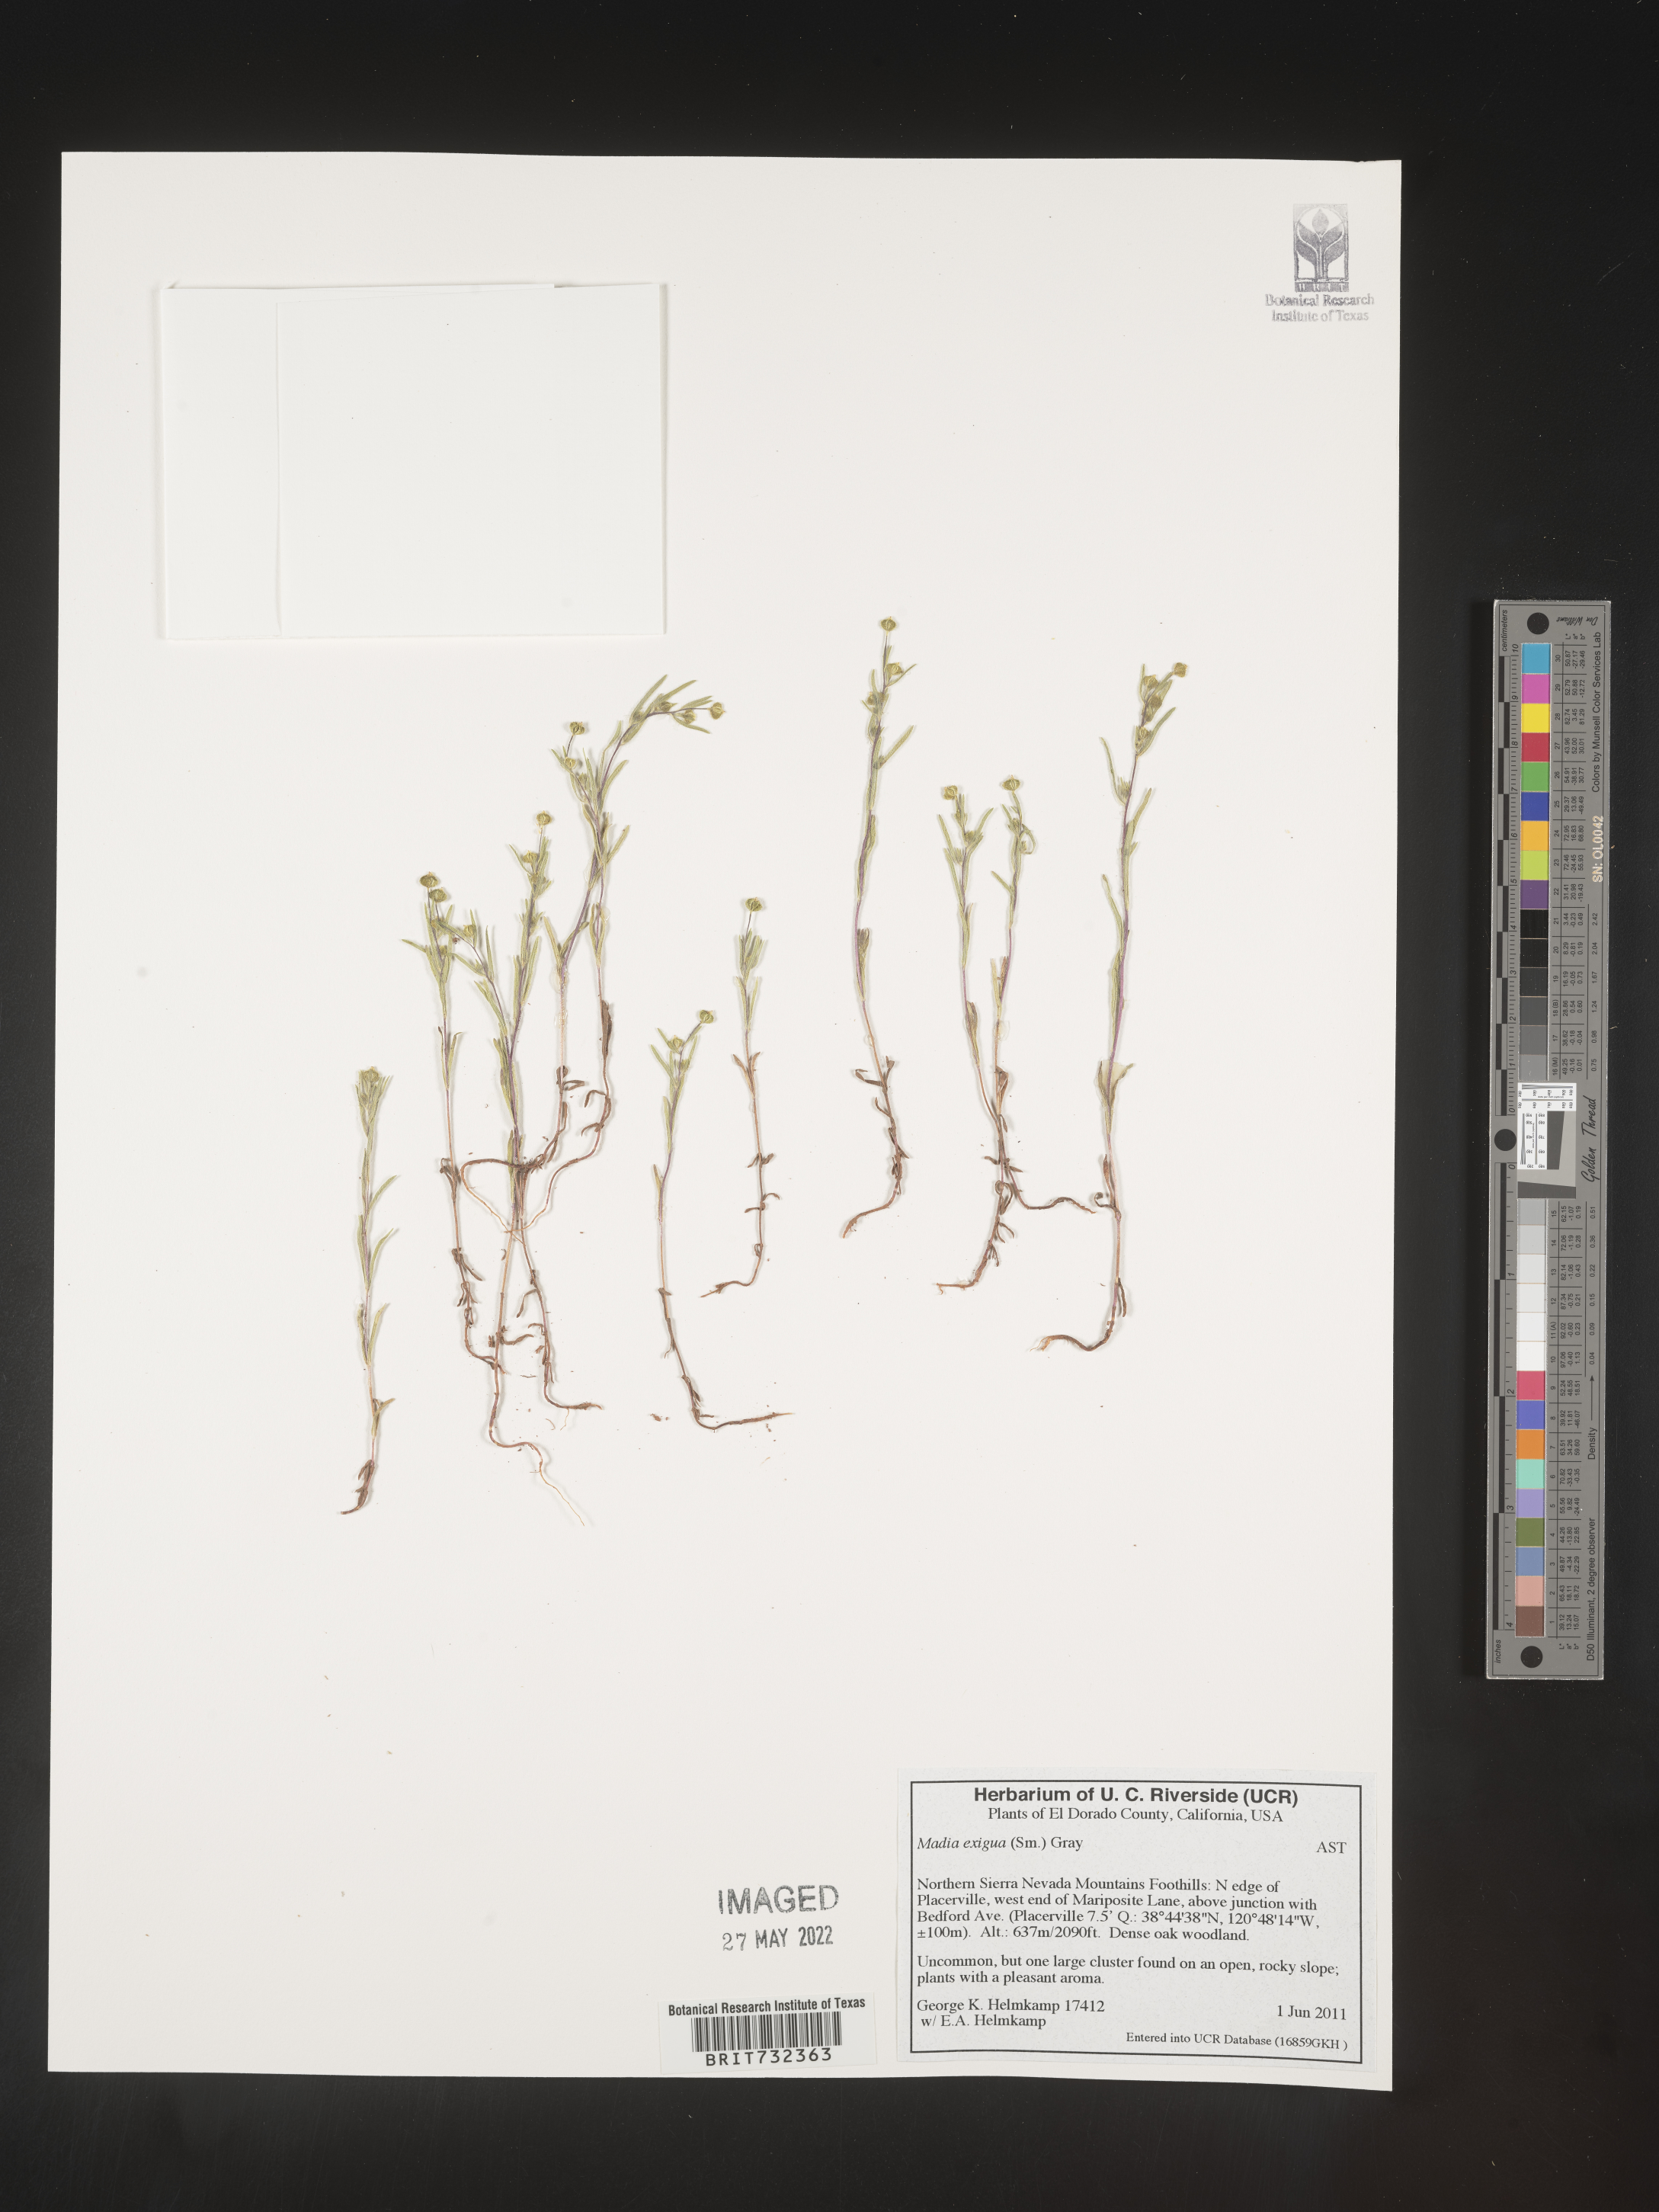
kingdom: Plantae
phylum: Tracheophyta
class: Magnoliopsida
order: Asterales
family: Asteraceae
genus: Madia
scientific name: Madia
